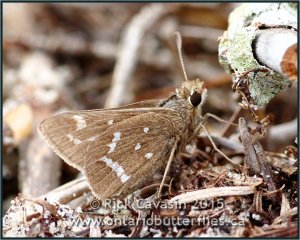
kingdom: Animalia
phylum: Arthropoda
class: Insecta
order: Lepidoptera
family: Hesperiidae
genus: Atrytonopsis
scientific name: Atrytonopsis loammi
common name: Loammi Skipper
